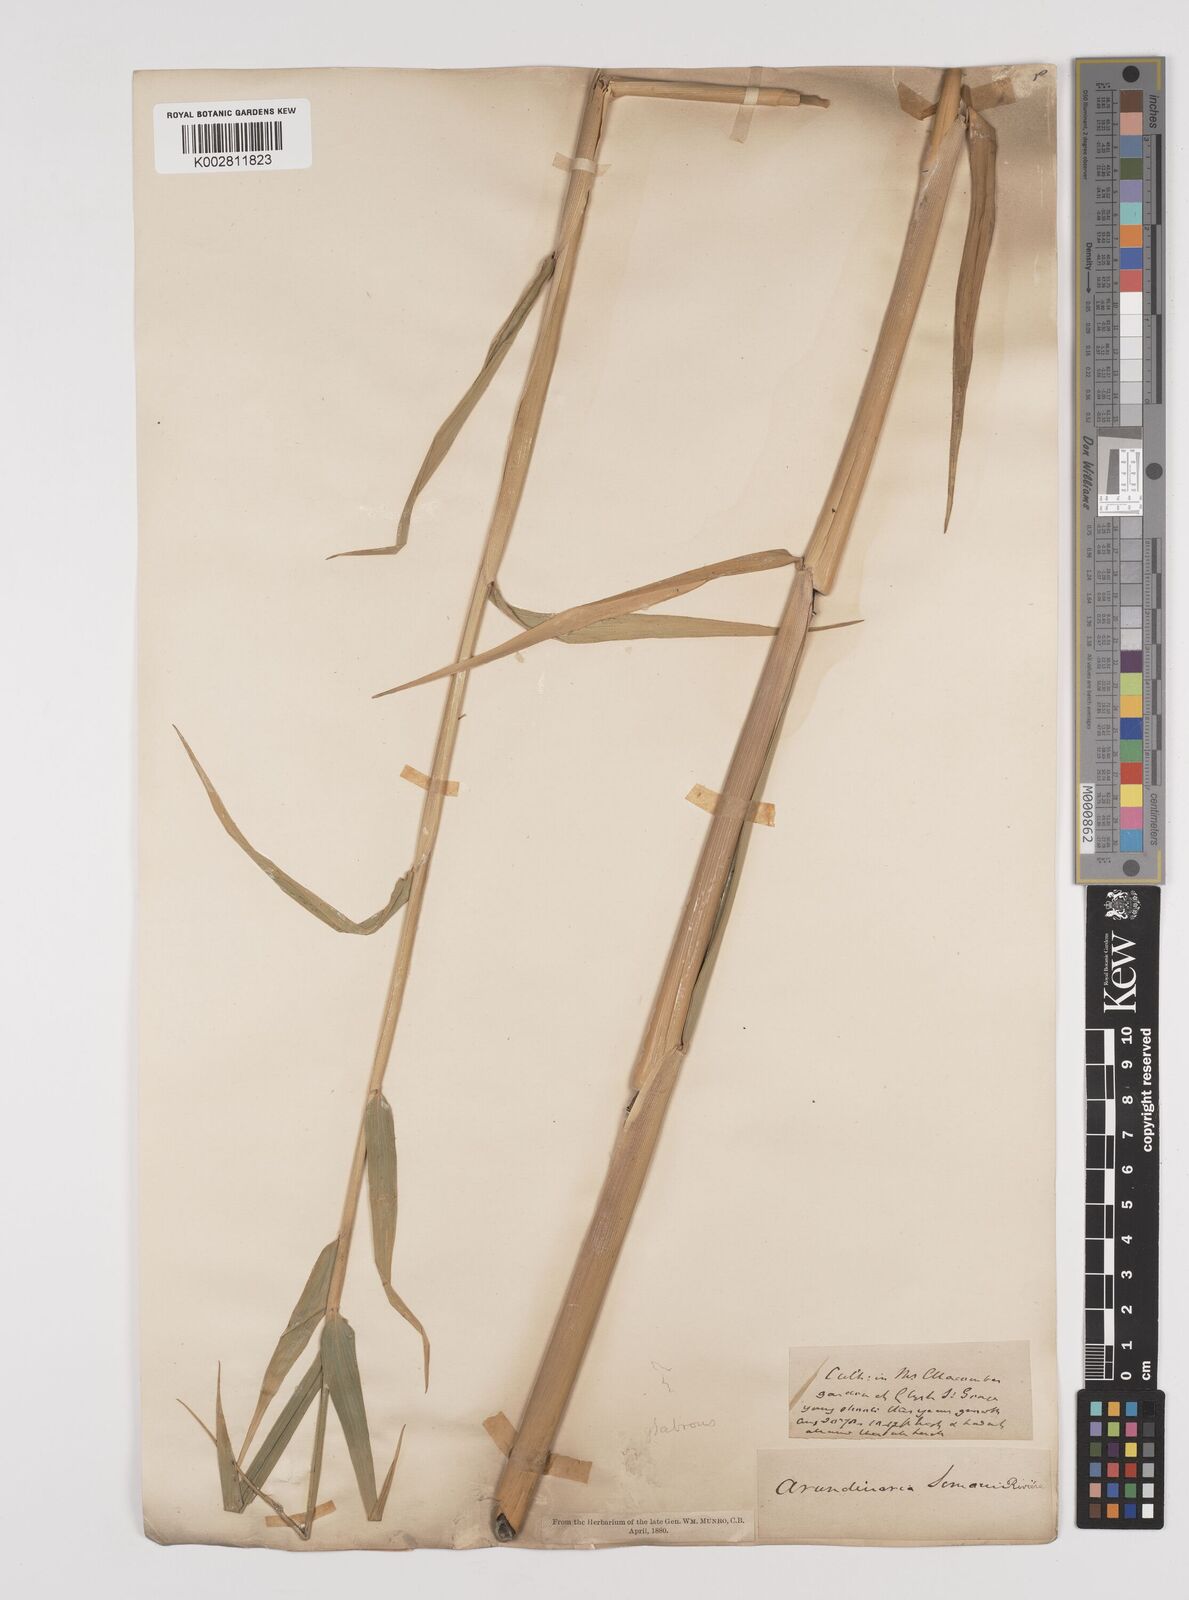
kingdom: Plantae
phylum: Tracheophyta
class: Liliopsida
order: Poales
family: Poaceae
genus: Pleioblastus
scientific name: Pleioblastus simonii
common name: Simon bamboo
